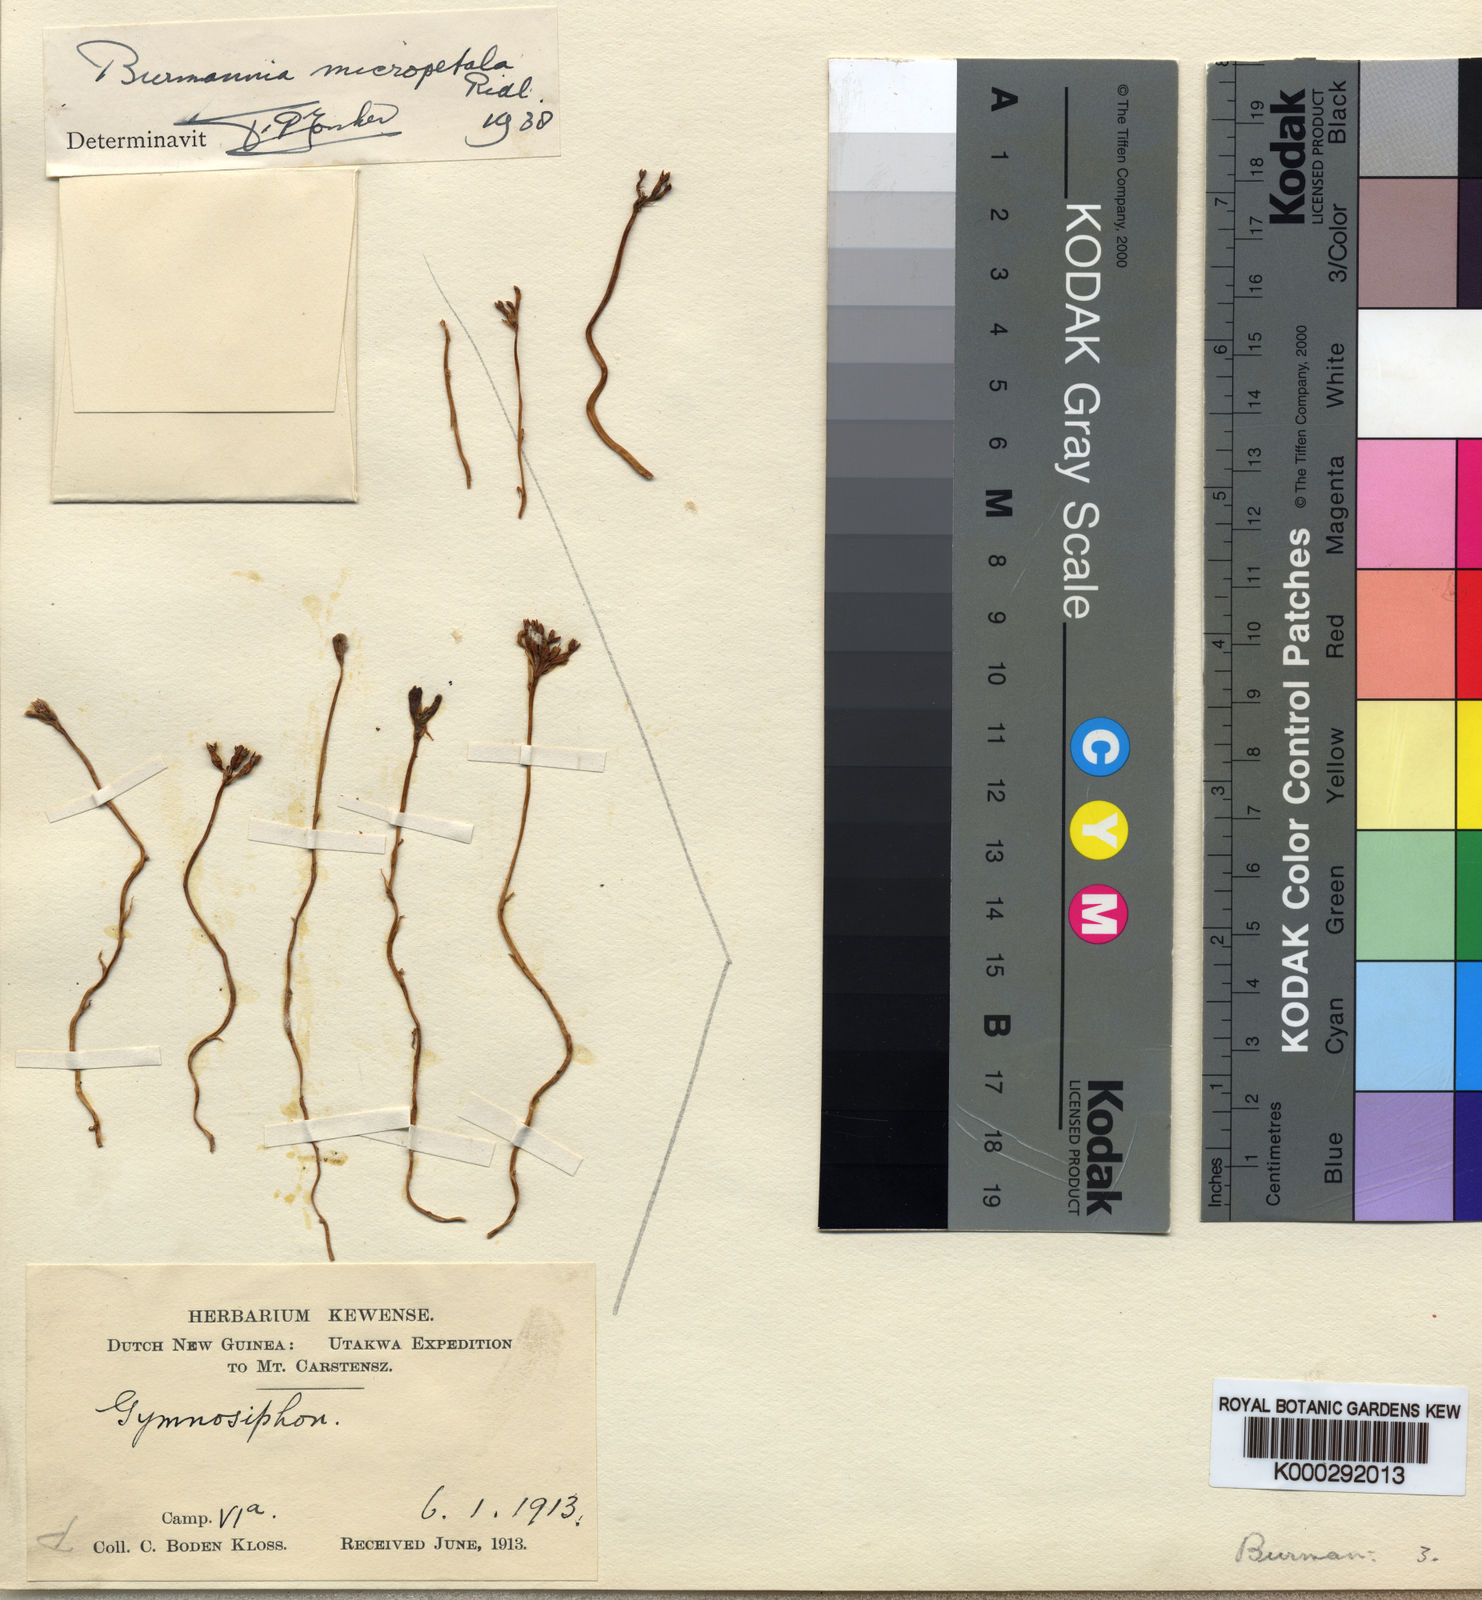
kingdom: Plantae
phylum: Tracheophyta
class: Liliopsida
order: Dioscoreales
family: Burmanniaceae
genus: Burmannia
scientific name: Burmannia micropetala
